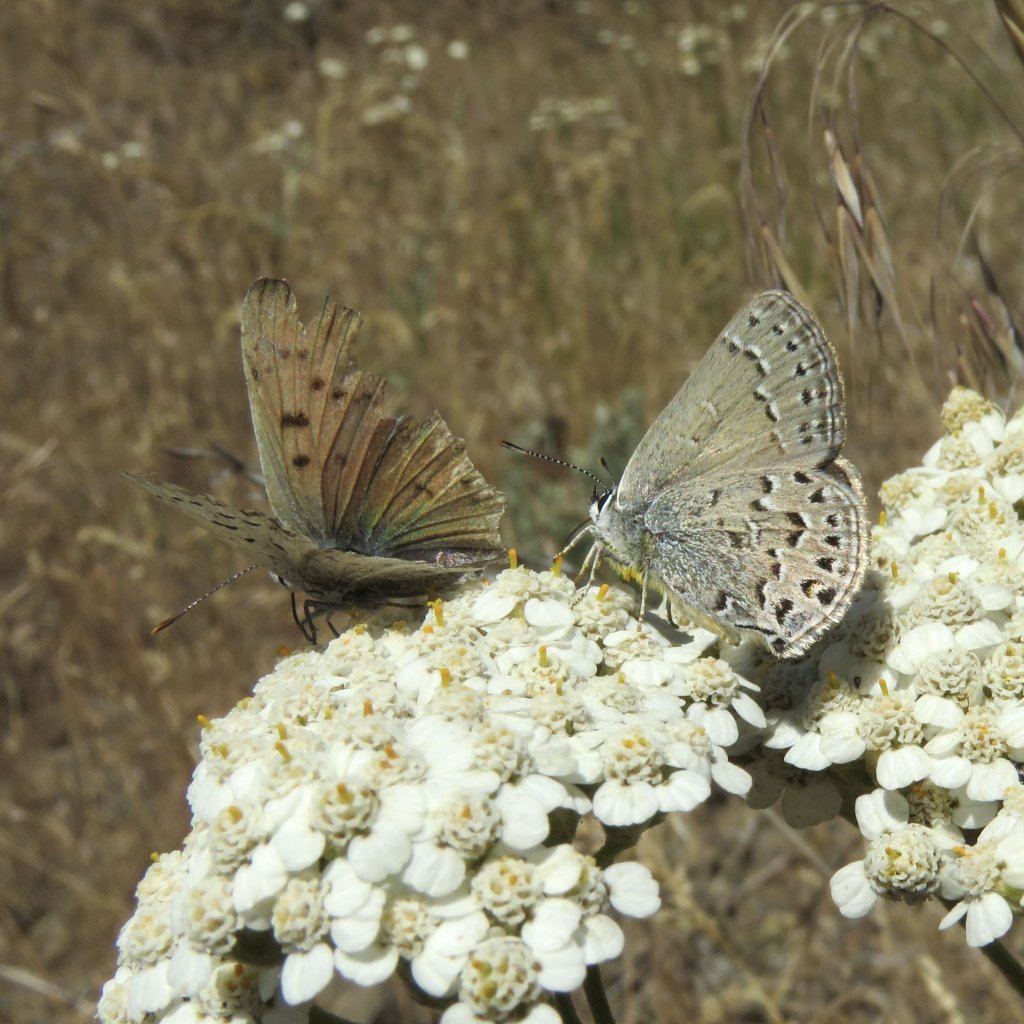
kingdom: Animalia
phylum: Arthropoda
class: Insecta
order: Lepidoptera
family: Lycaenidae
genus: Satyrium
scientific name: Satyrium behrii
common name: Behr's Hairstreak
